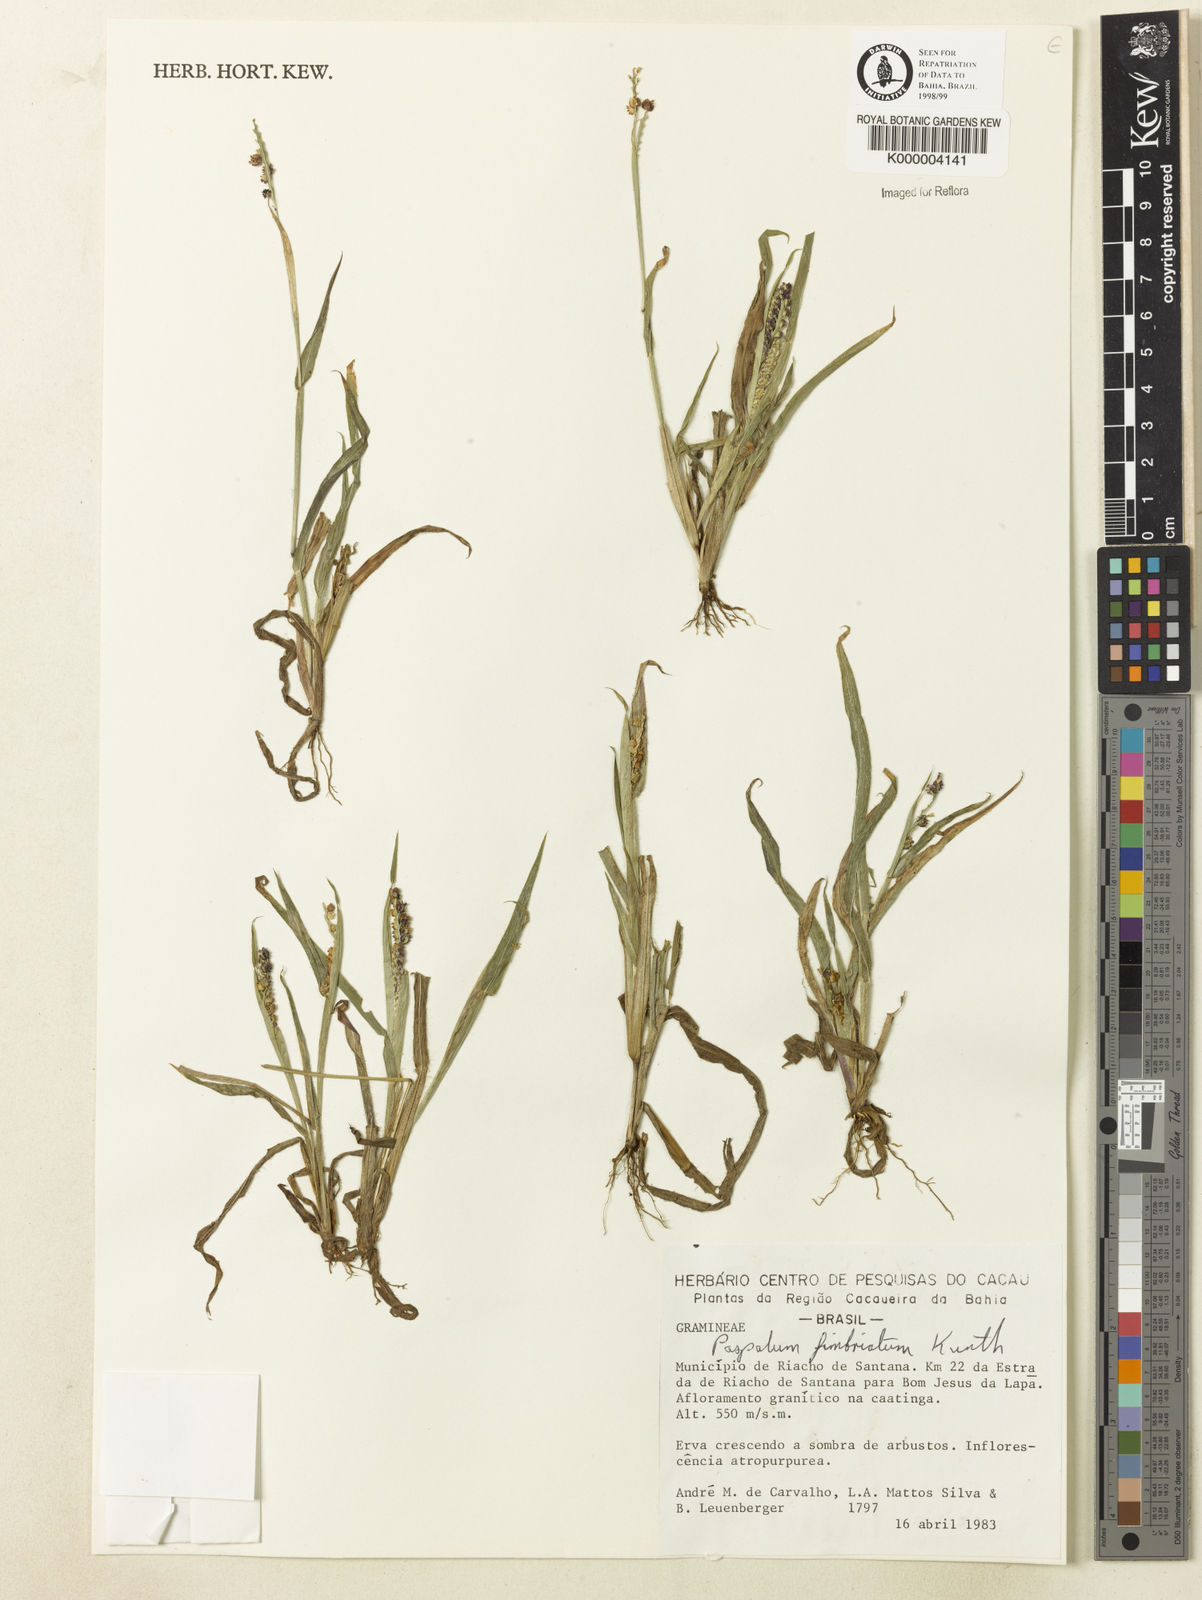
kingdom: Plantae
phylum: Tracheophyta
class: Liliopsida
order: Poales
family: Poaceae
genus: Paspalum
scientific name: Paspalum fimbriatum
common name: Panama crowngrass
